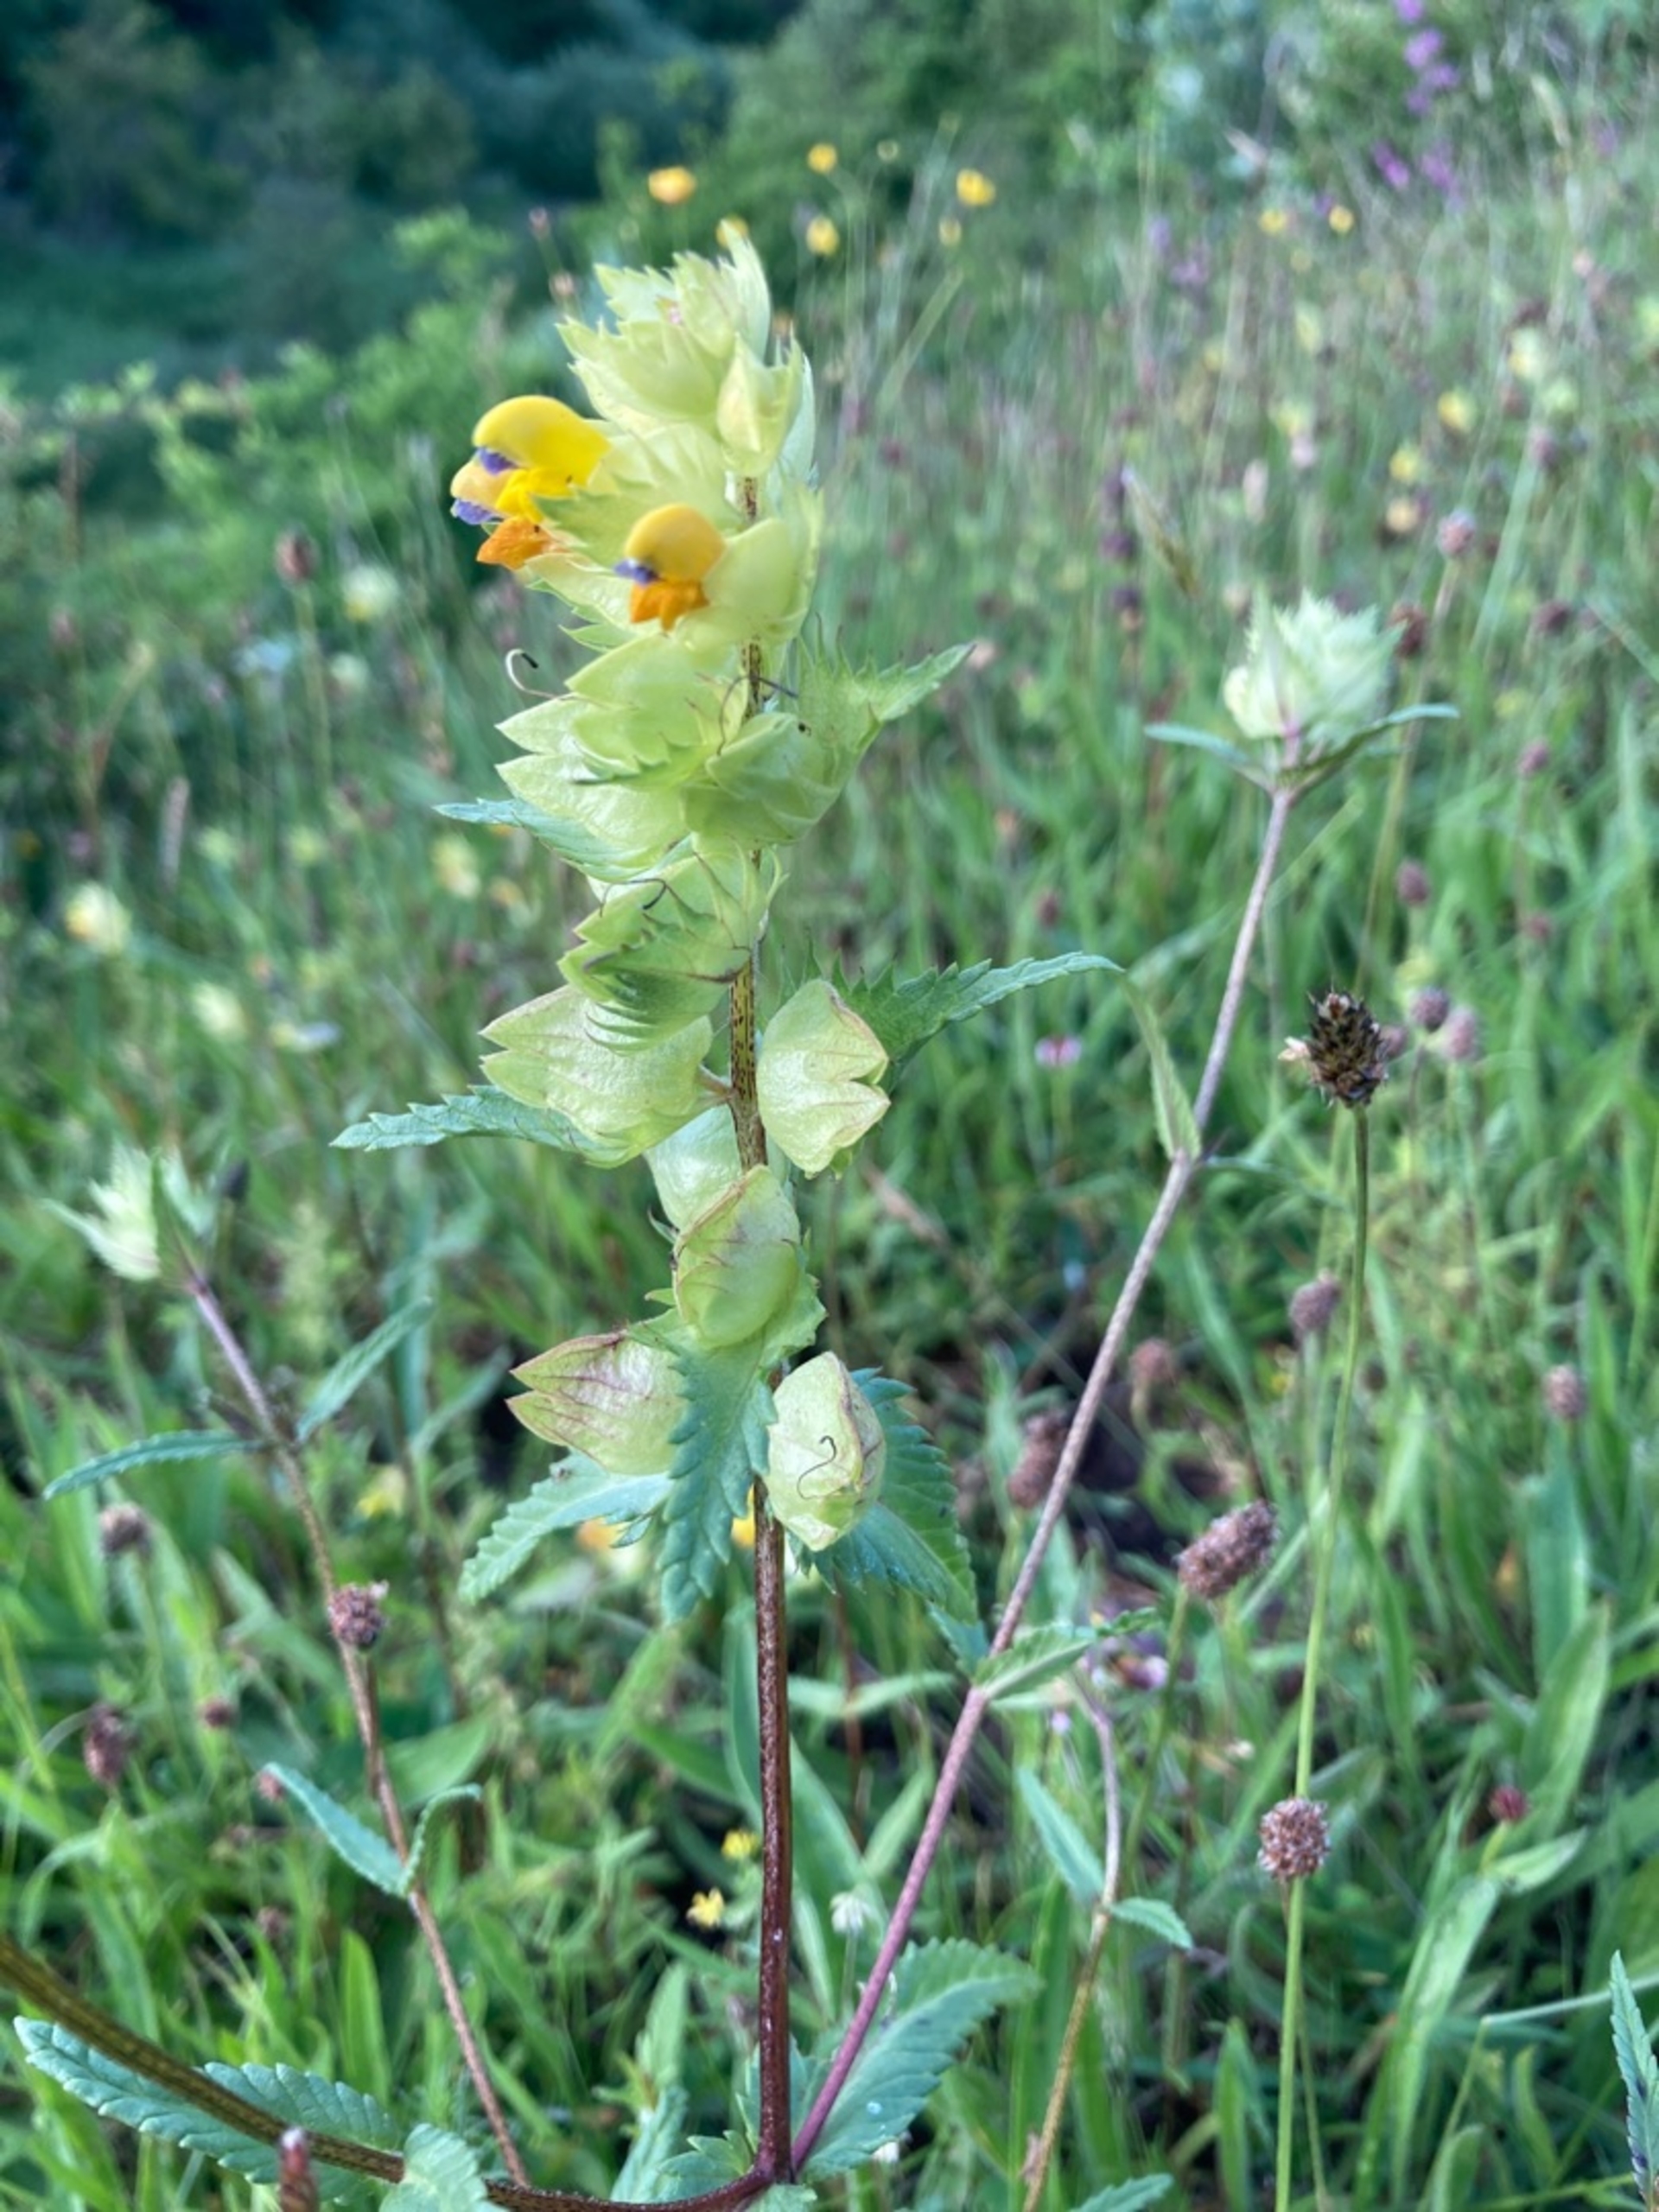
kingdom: Plantae
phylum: Tracheophyta
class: Magnoliopsida
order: Lamiales
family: Orobanchaceae
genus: Rhinanthus
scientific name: Rhinanthus
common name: Stor skjaller
